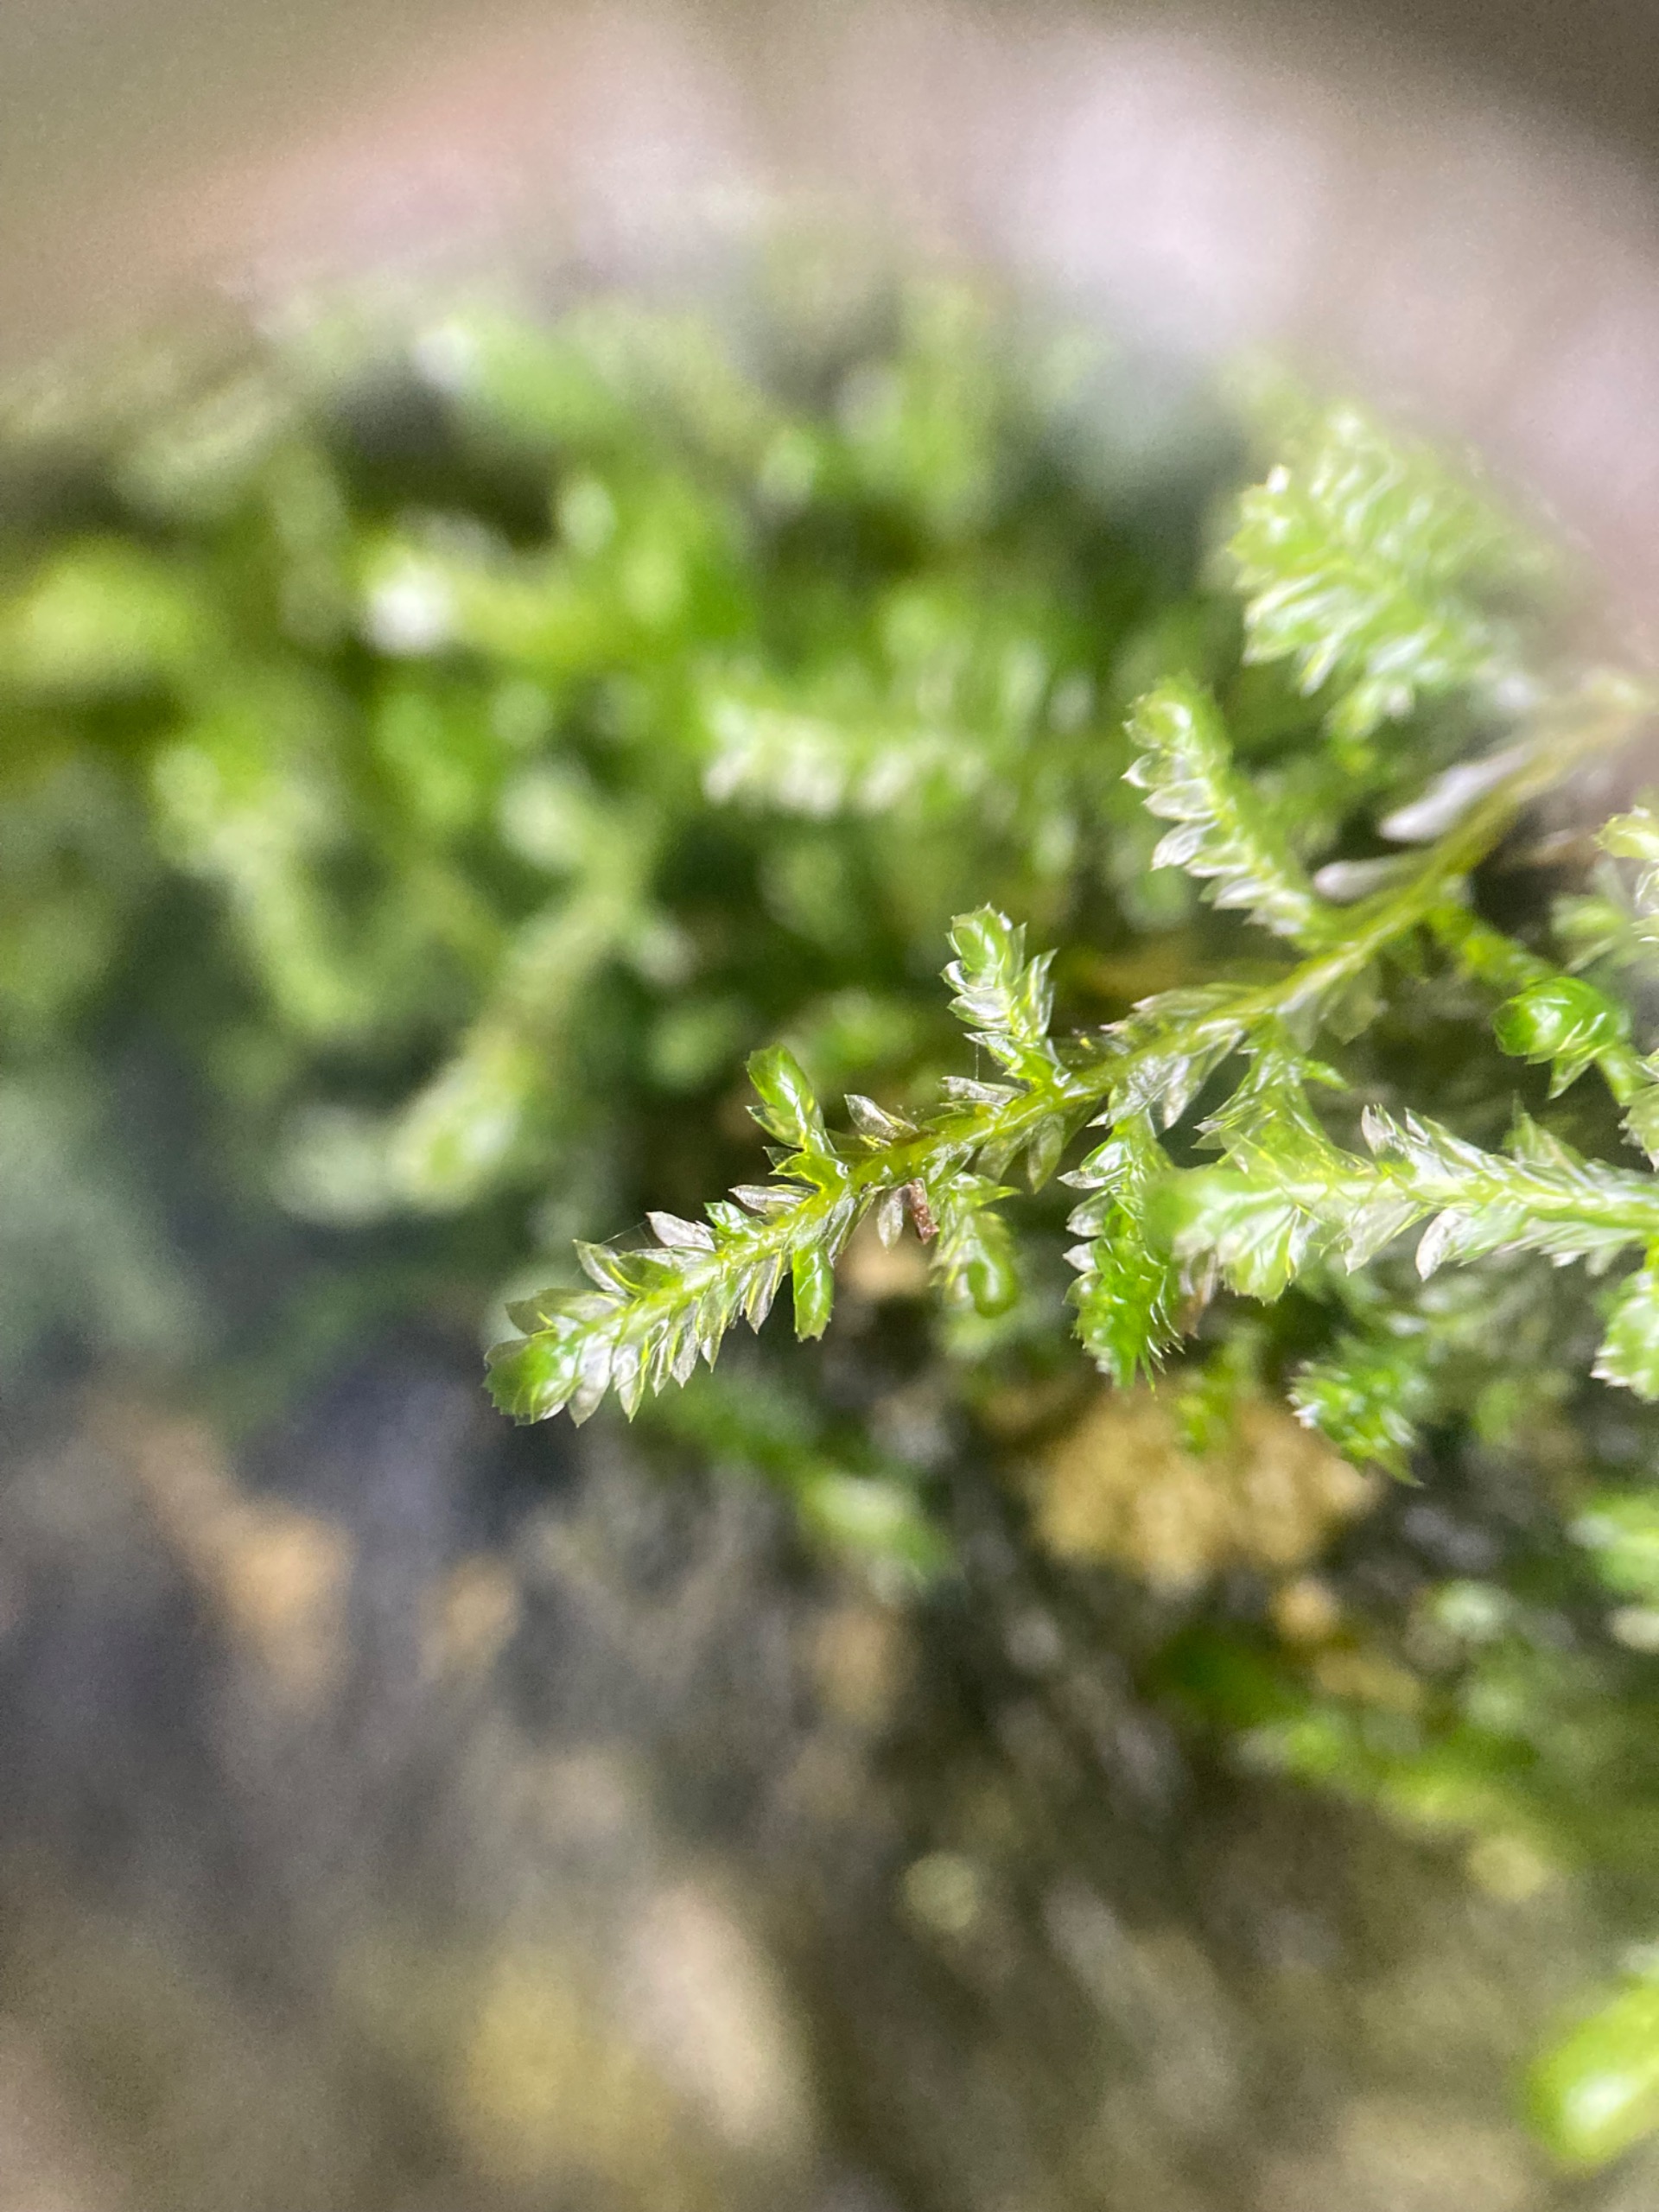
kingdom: Plantae
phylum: Bryophyta
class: Bryopsida
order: Hypnales
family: Neckeraceae
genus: Alleniella
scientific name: Alleniella complanata
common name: Almindelig fladmos
